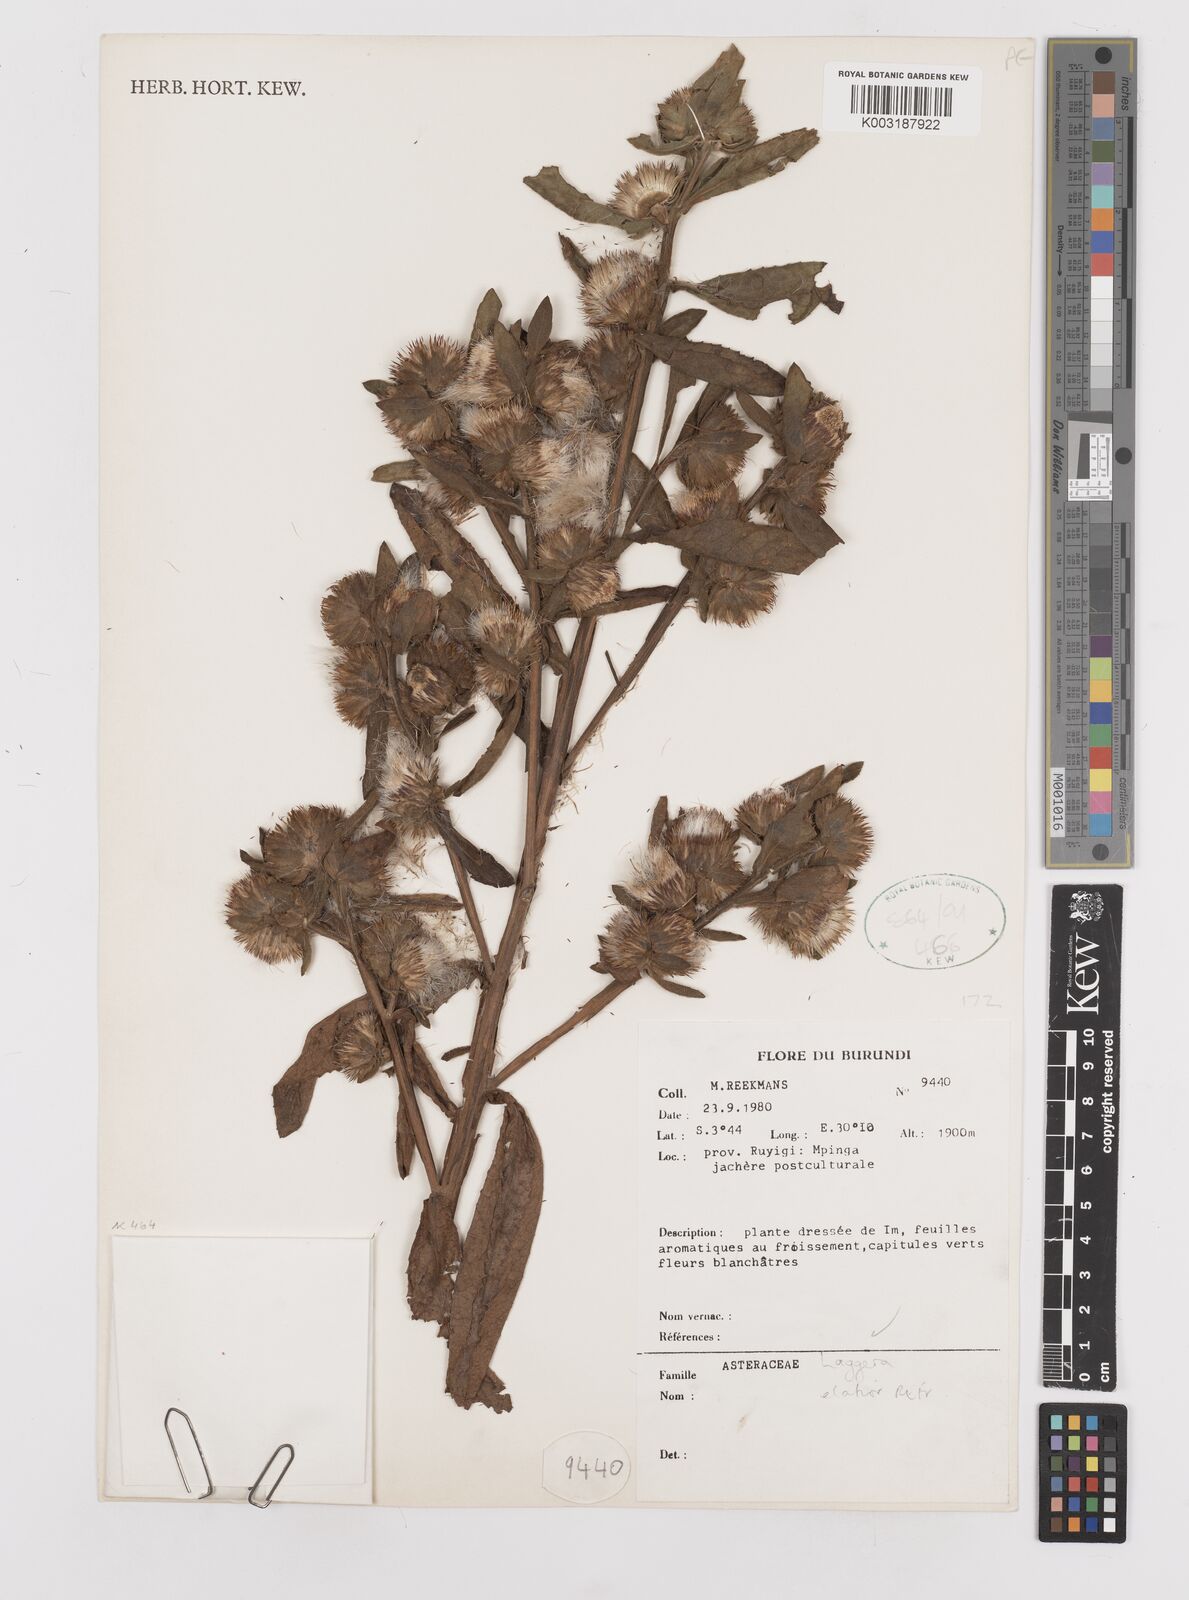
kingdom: Plantae
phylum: Tracheophyta
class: Magnoliopsida
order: Asterales
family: Asteraceae
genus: Laggera
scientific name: Laggera elatior
